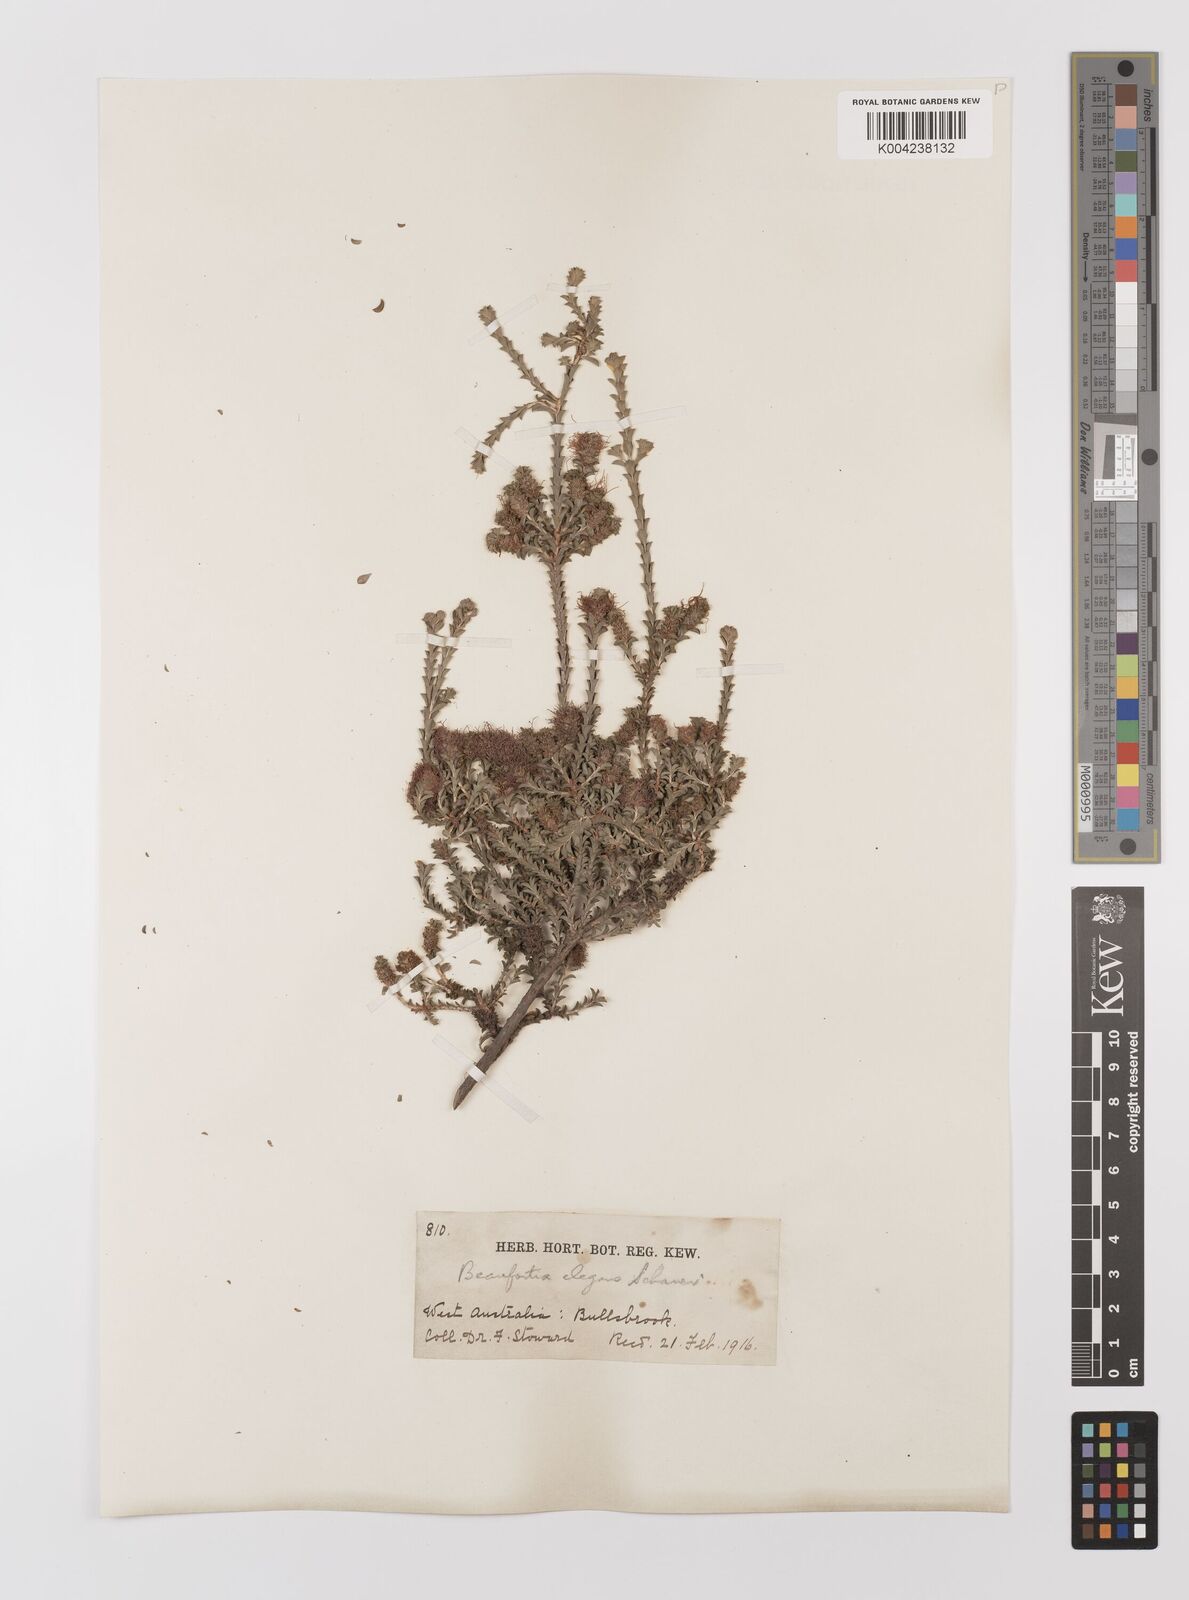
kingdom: Plantae
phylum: Tracheophyta
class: Magnoliopsida
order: Myrtales
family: Myrtaceae
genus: Melaleuca
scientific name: Melaleuca scitula
